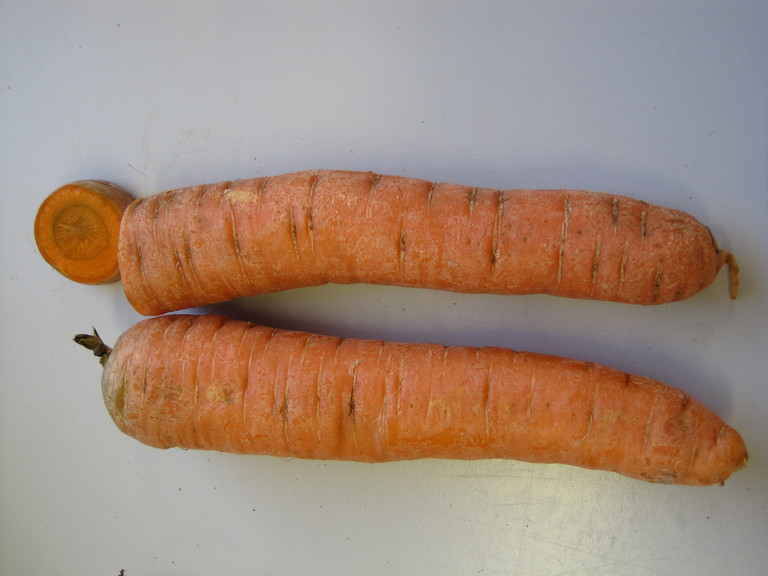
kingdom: Plantae
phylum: Tracheophyta
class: Magnoliopsida
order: Apiales
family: Apiaceae
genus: Daucus
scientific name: Daucus carota
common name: Wild carrot
